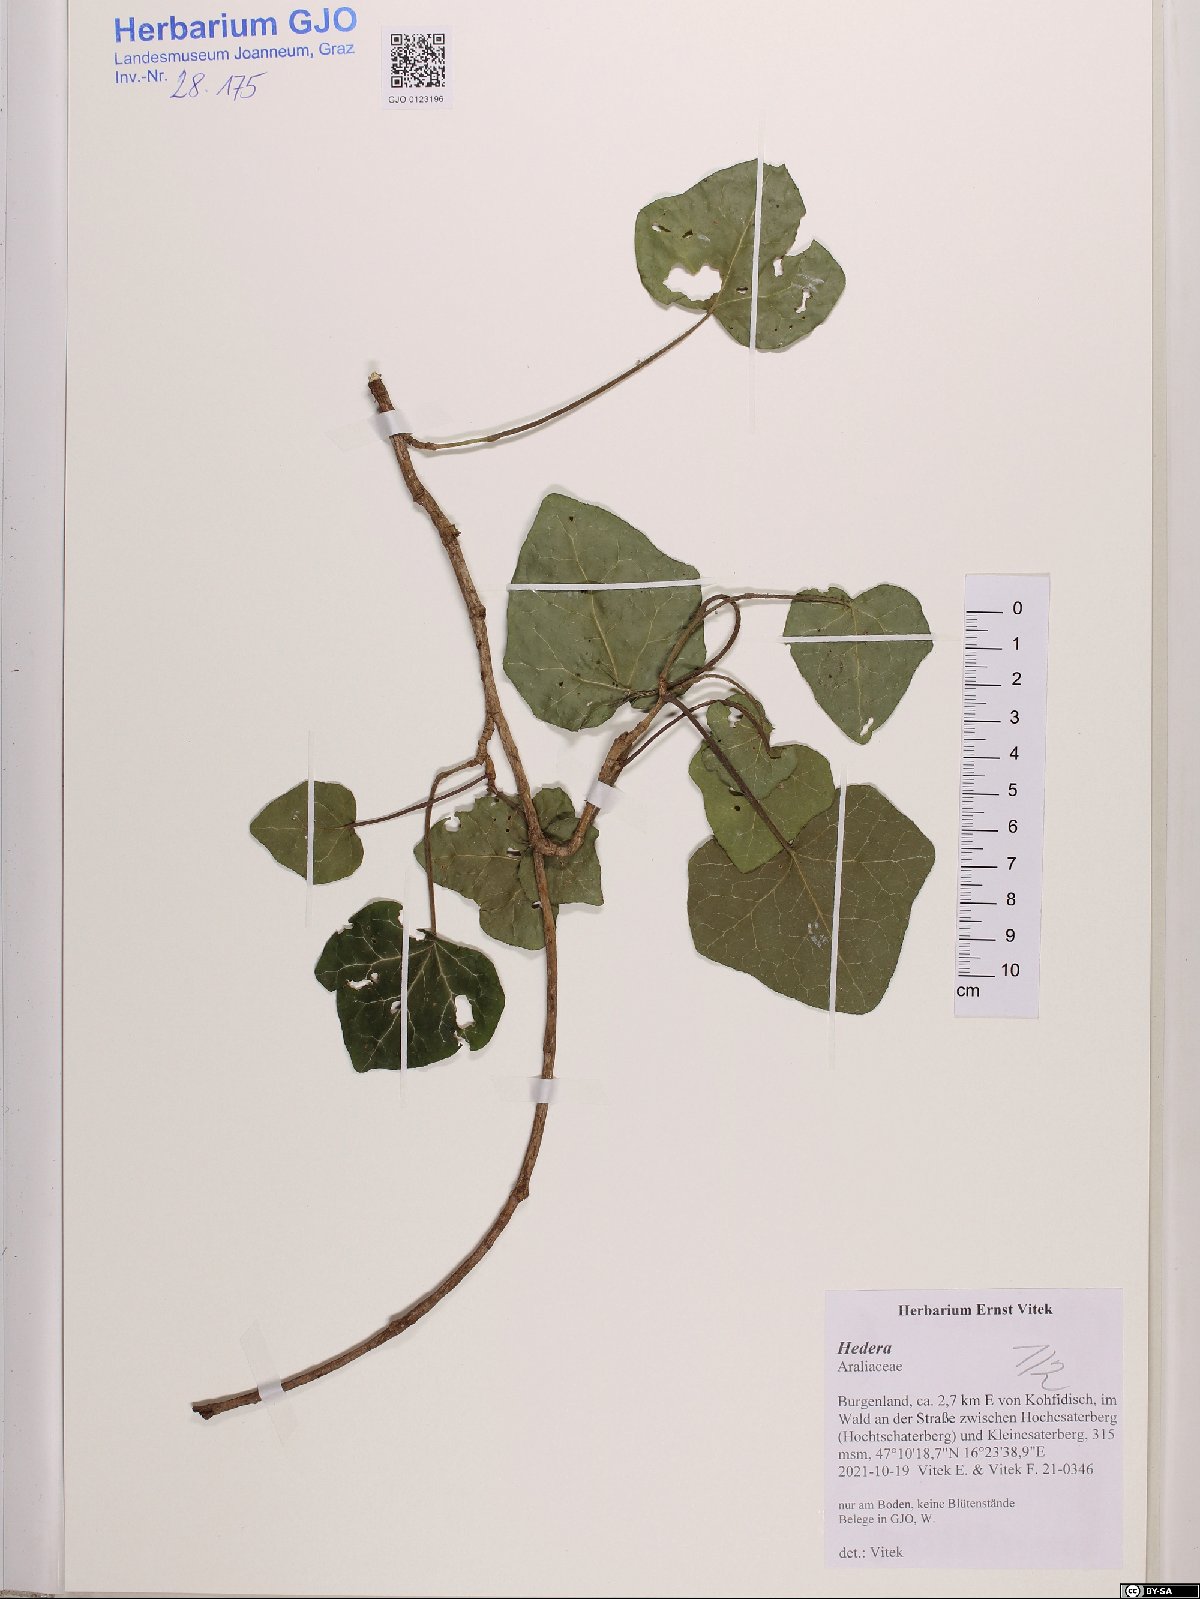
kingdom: Plantae
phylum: Tracheophyta
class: Magnoliopsida
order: Apiales
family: Araliaceae
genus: Hedera
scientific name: Hedera
